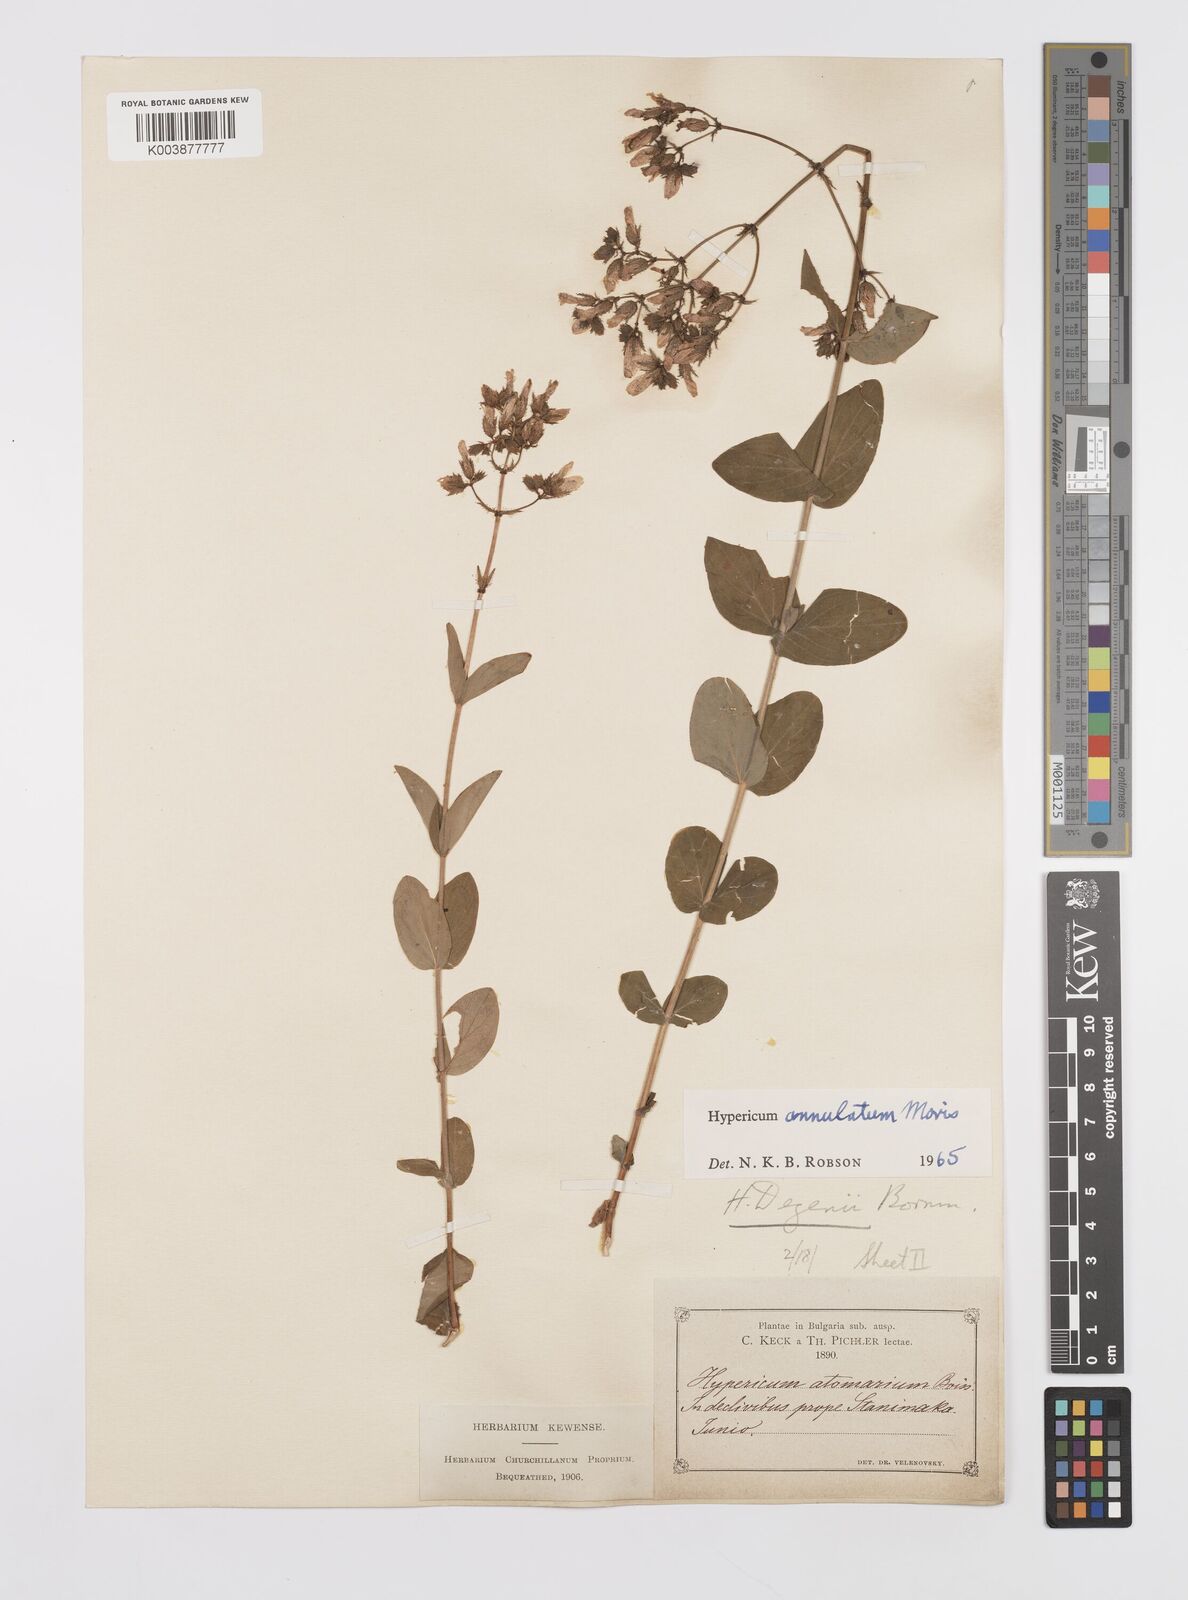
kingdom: Plantae
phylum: Tracheophyta
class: Magnoliopsida
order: Malpighiales
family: Hypericaceae
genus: Hypericum
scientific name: Hypericum annulatum
